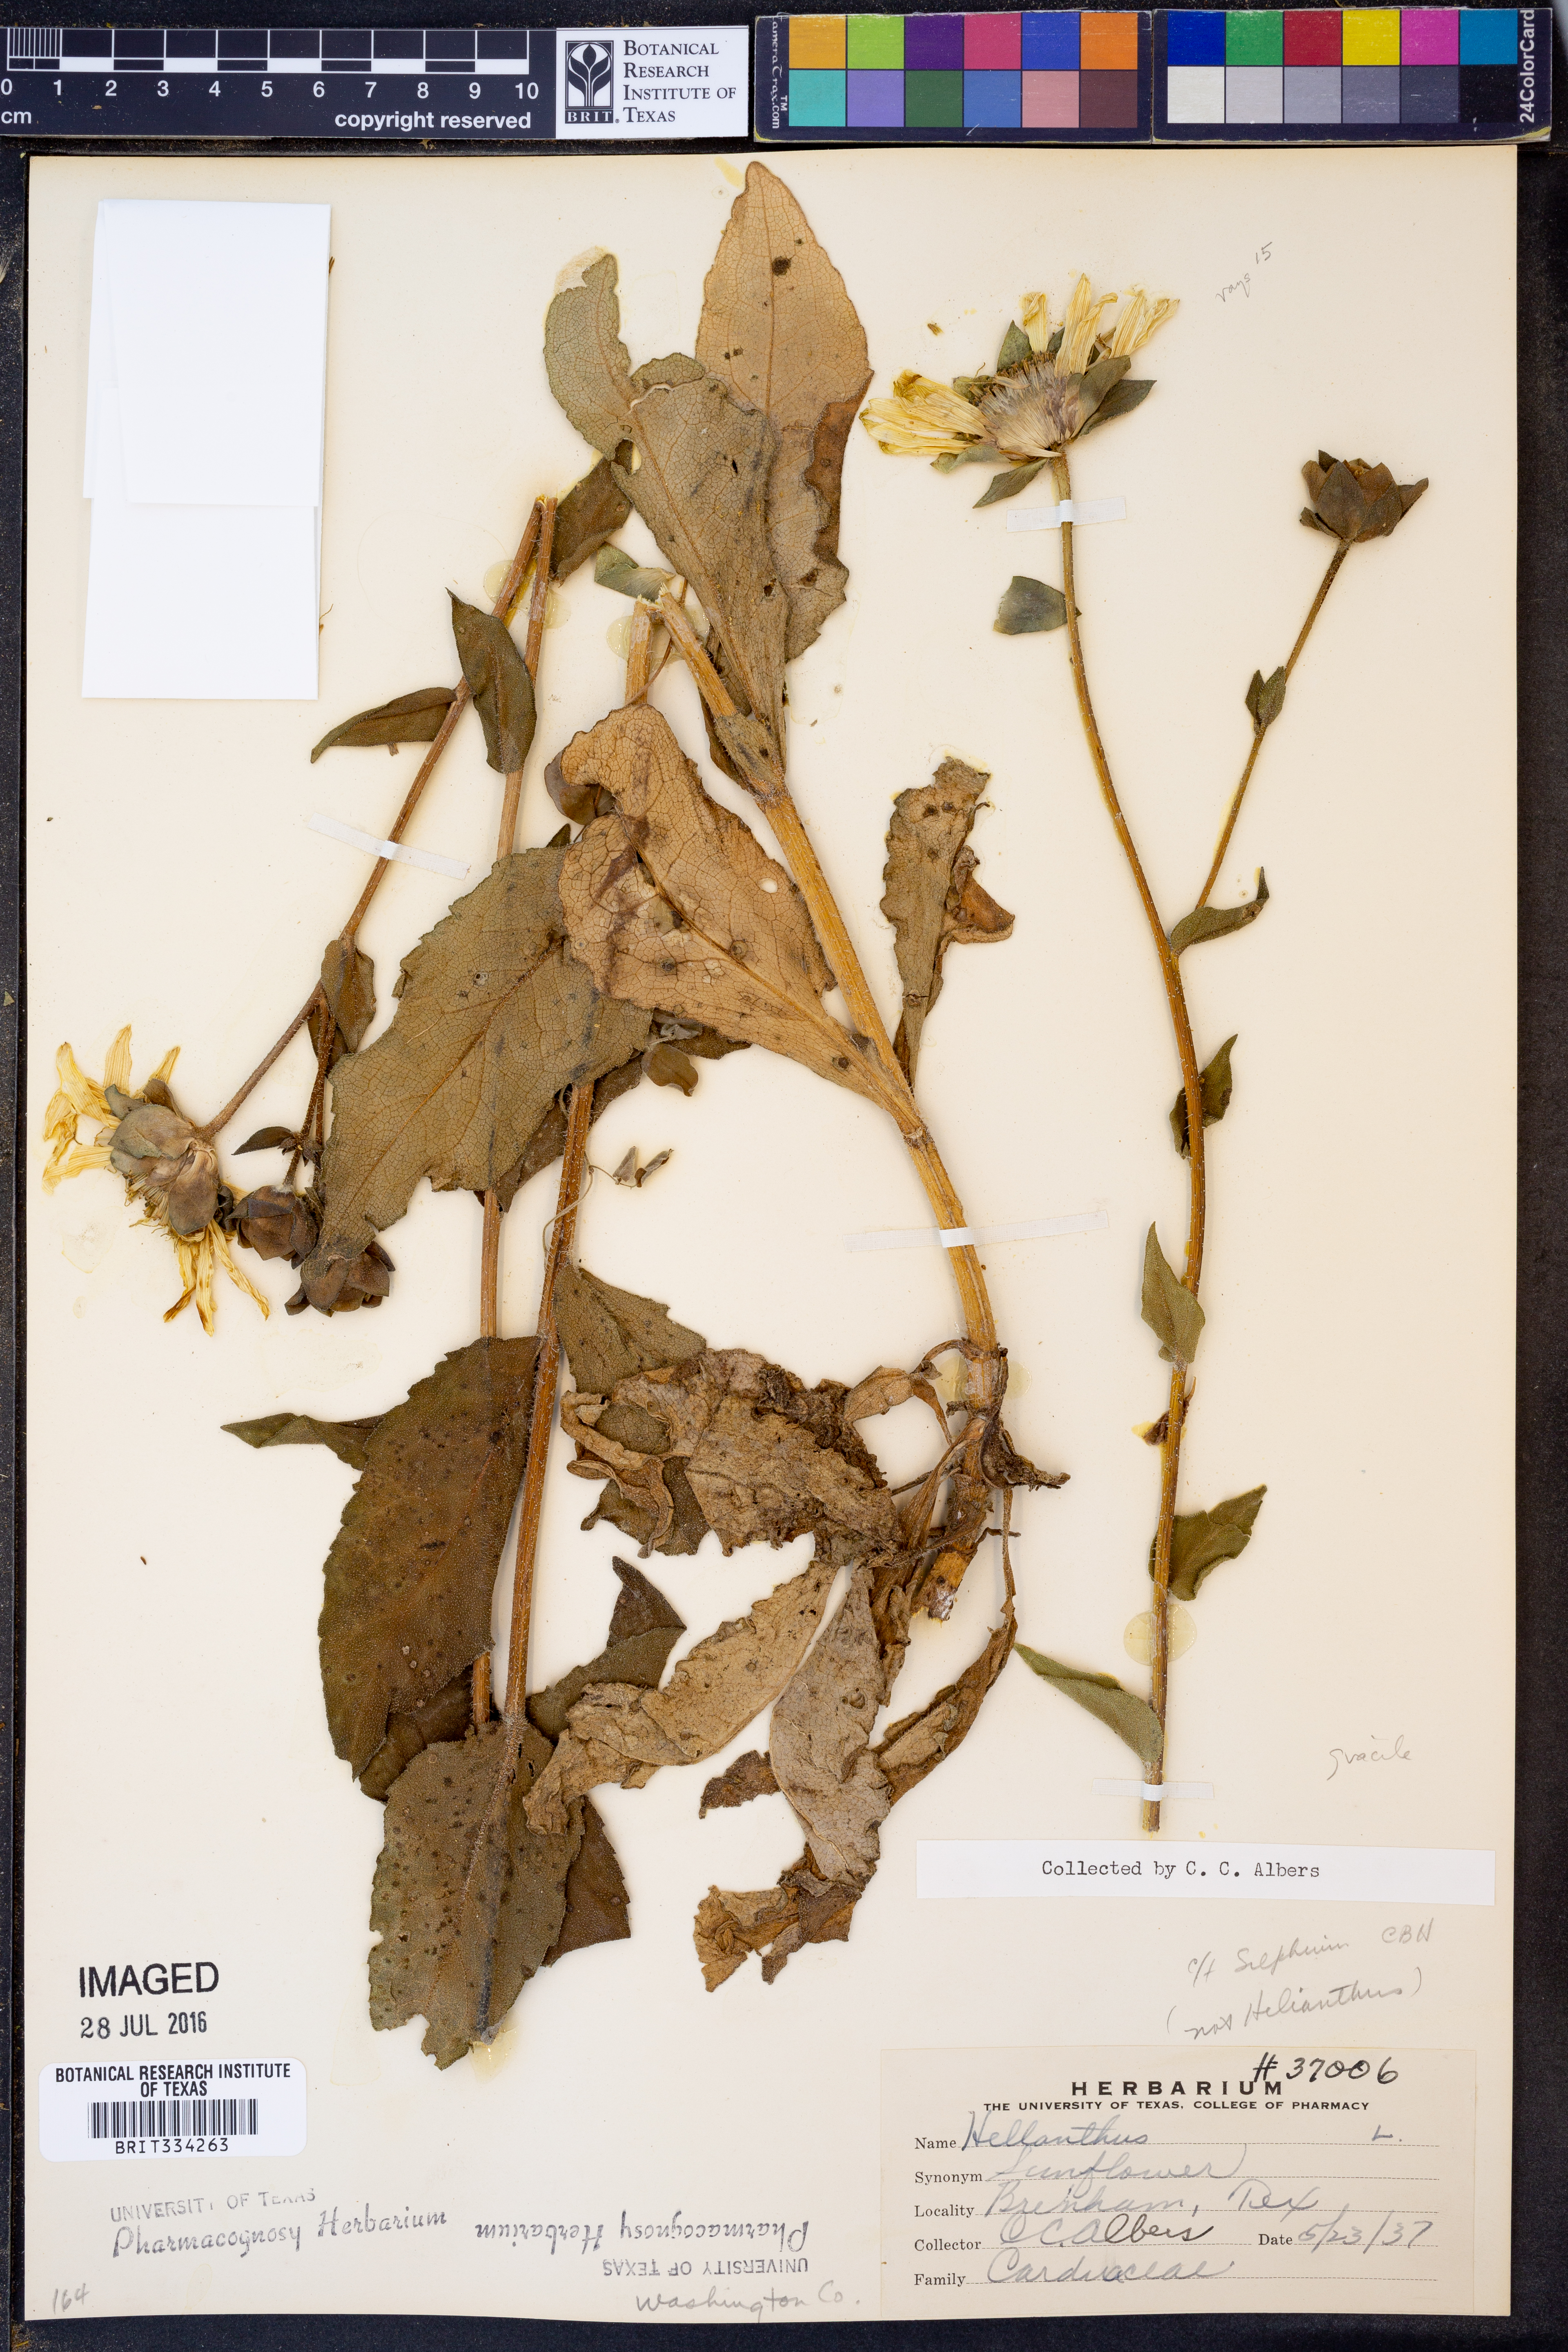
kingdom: Plantae
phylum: Tracheophyta
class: Magnoliopsida
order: Asterales
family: Asteraceae
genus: Silphium
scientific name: Silphium radula
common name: Roughleaf rosinweed
